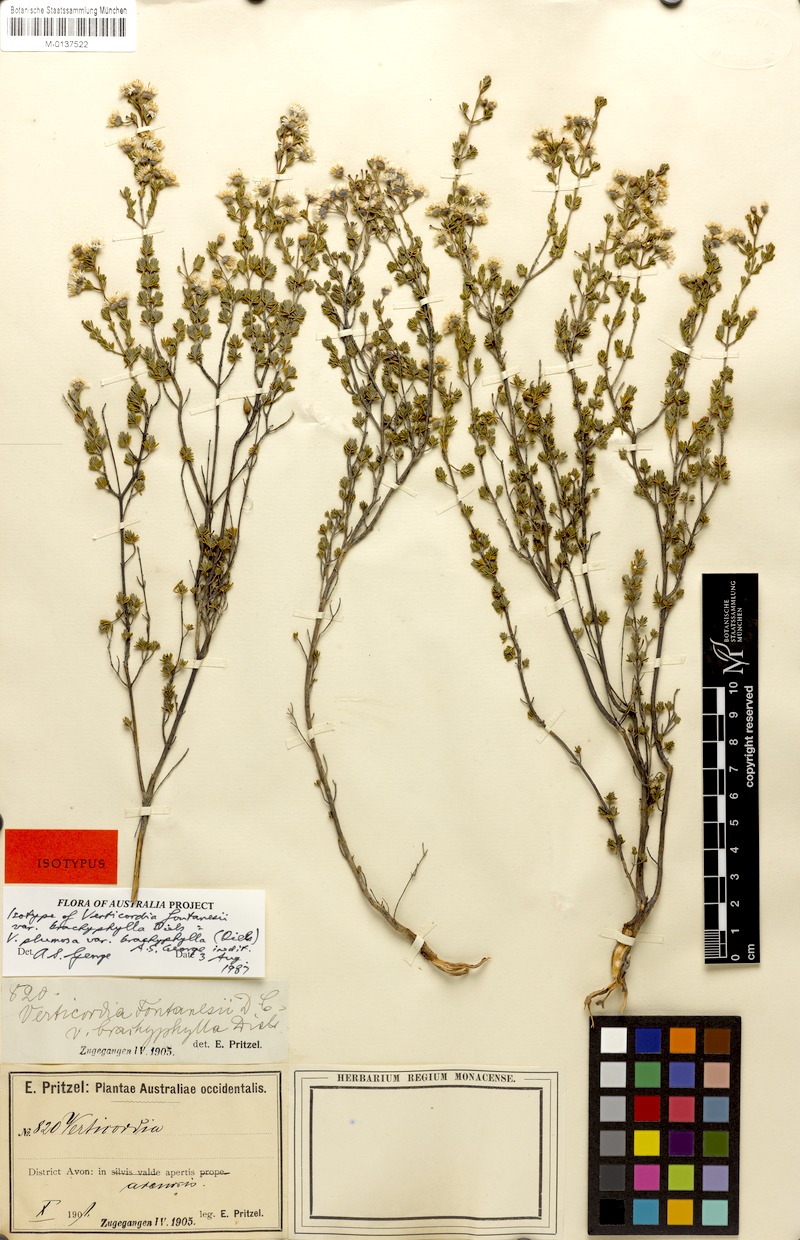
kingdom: Plantae
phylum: Tracheophyta
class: Magnoliopsida
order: Myrtales
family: Myrtaceae
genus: Verticordia
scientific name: Verticordia plumosa
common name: Plume feather-flower
